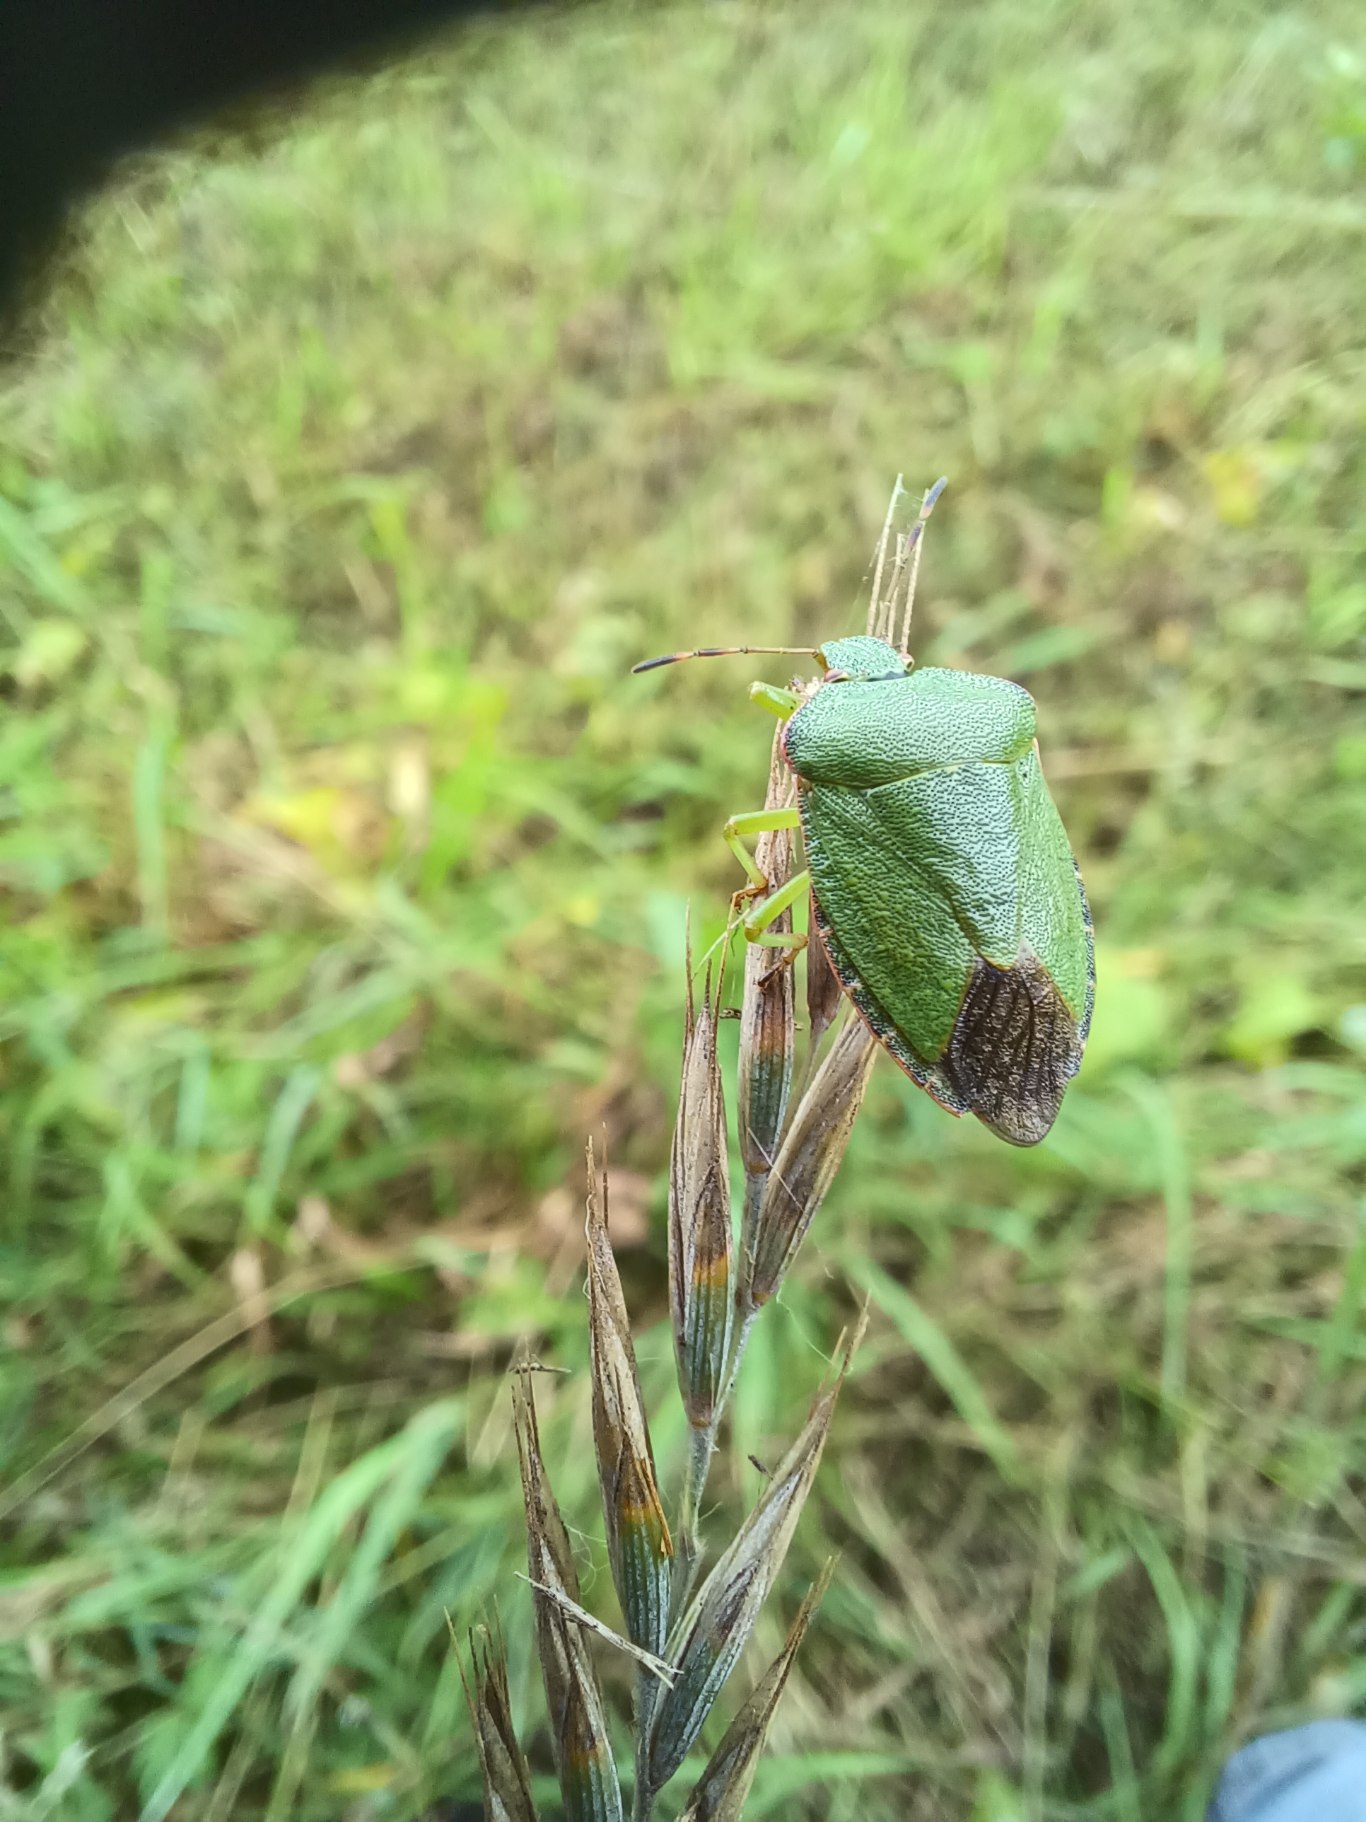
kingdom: Animalia
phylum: Arthropoda
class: Insecta
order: Hemiptera
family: Pentatomidae
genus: Palomena
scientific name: Palomena prasina
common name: Grøn bredtæge
